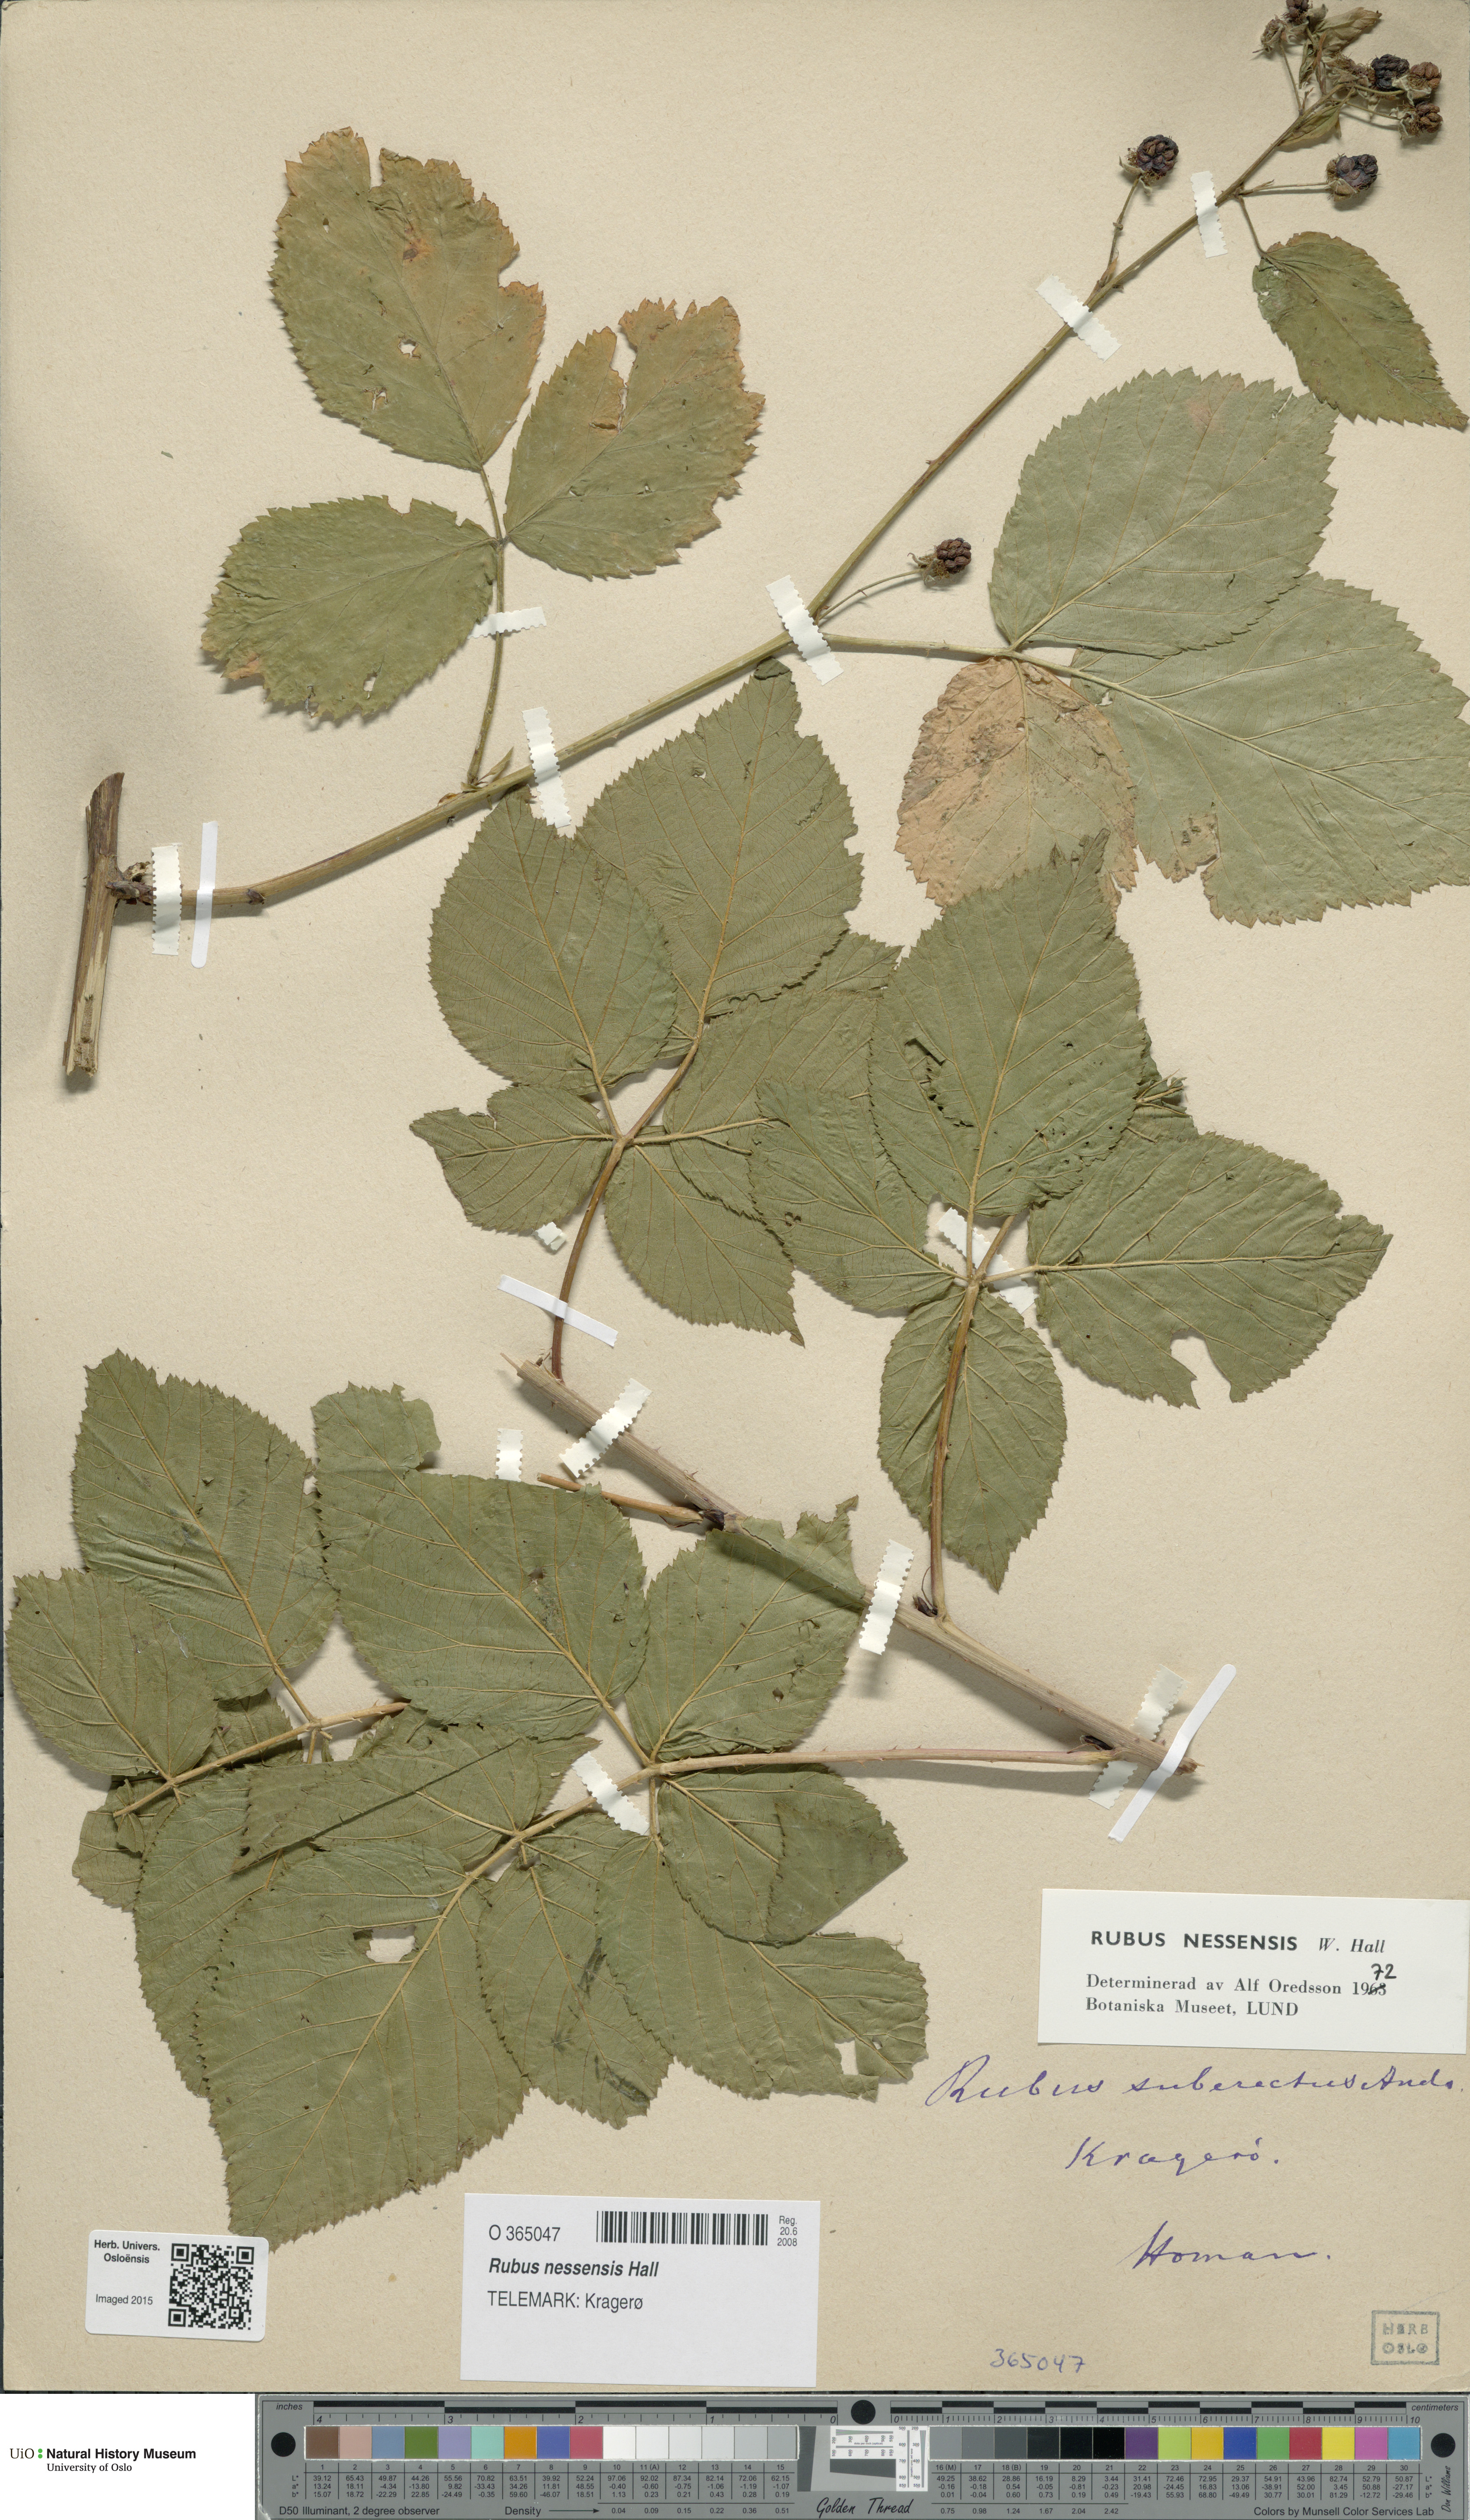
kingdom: Plantae
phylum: Tracheophyta
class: Magnoliopsida
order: Rosales
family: Rosaceae
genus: Rubus
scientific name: Rubus polonicus
